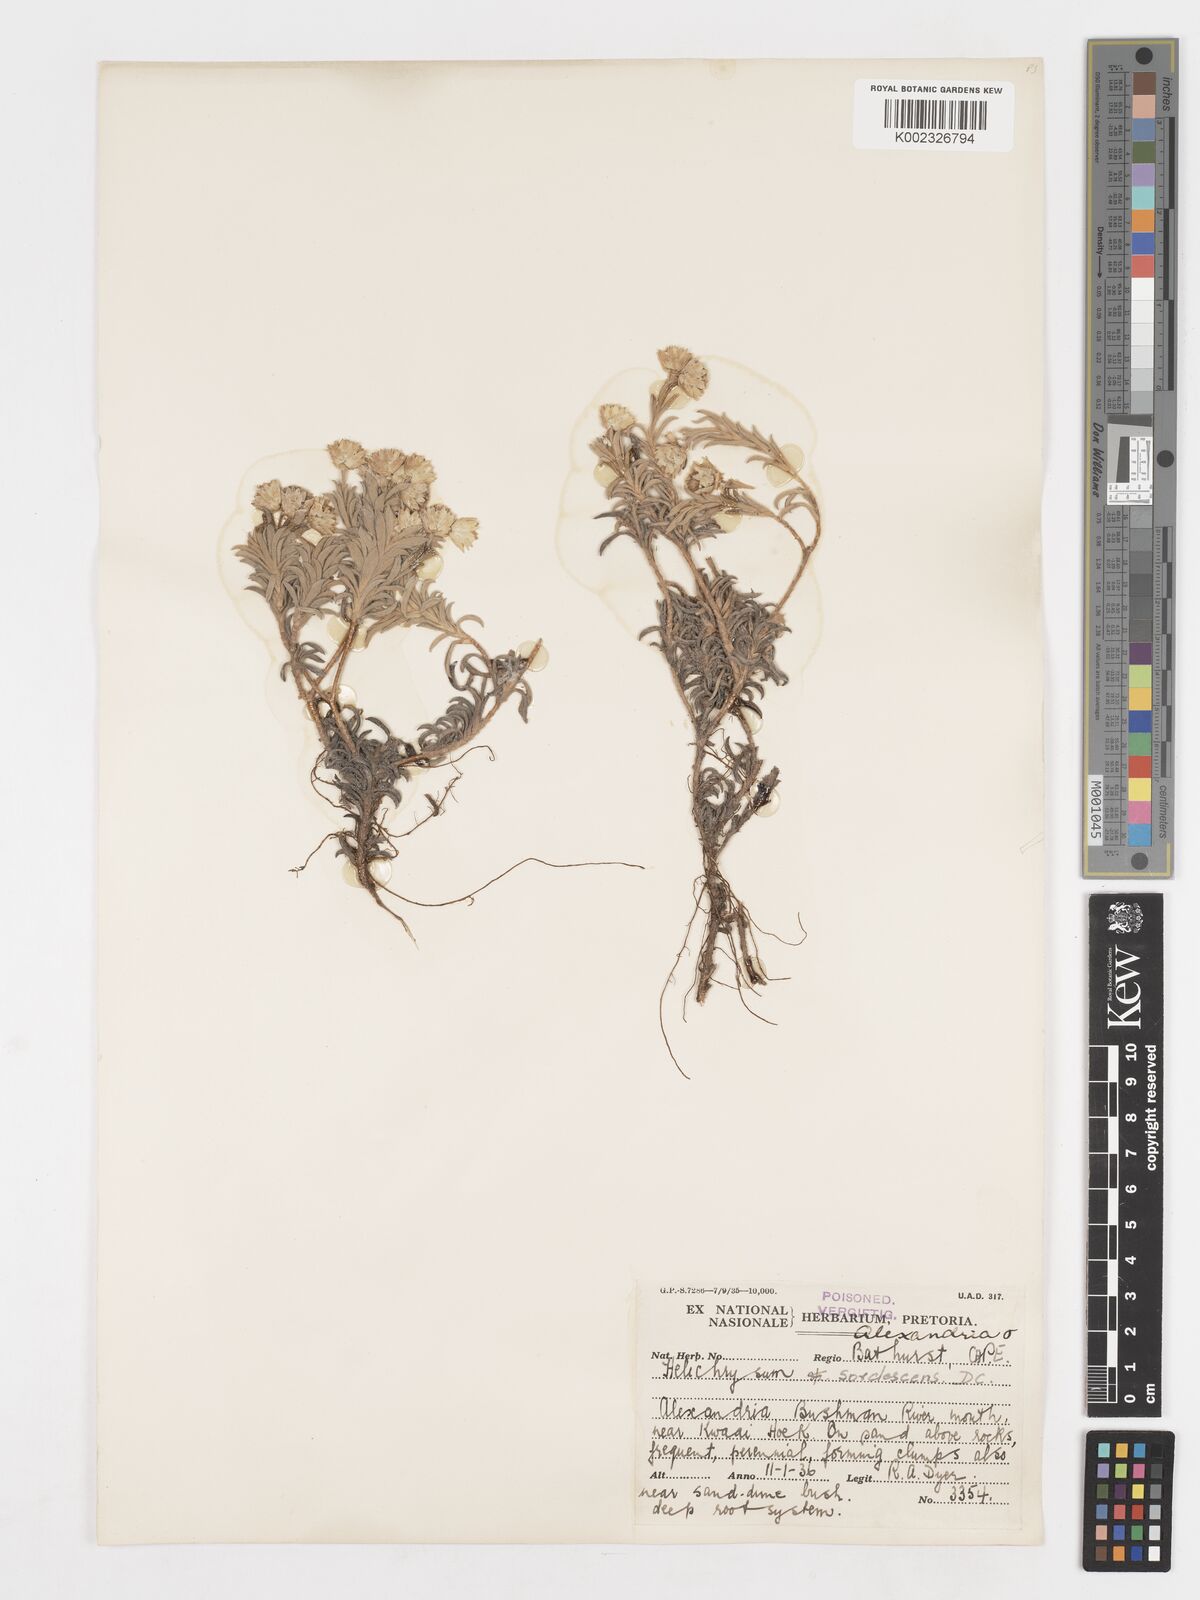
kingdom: Plantae
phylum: Tracheophyta
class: Magnoliopsida
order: Asterales
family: Asteraceae
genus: Achyranthemum
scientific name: Achyranthemum sordescens
